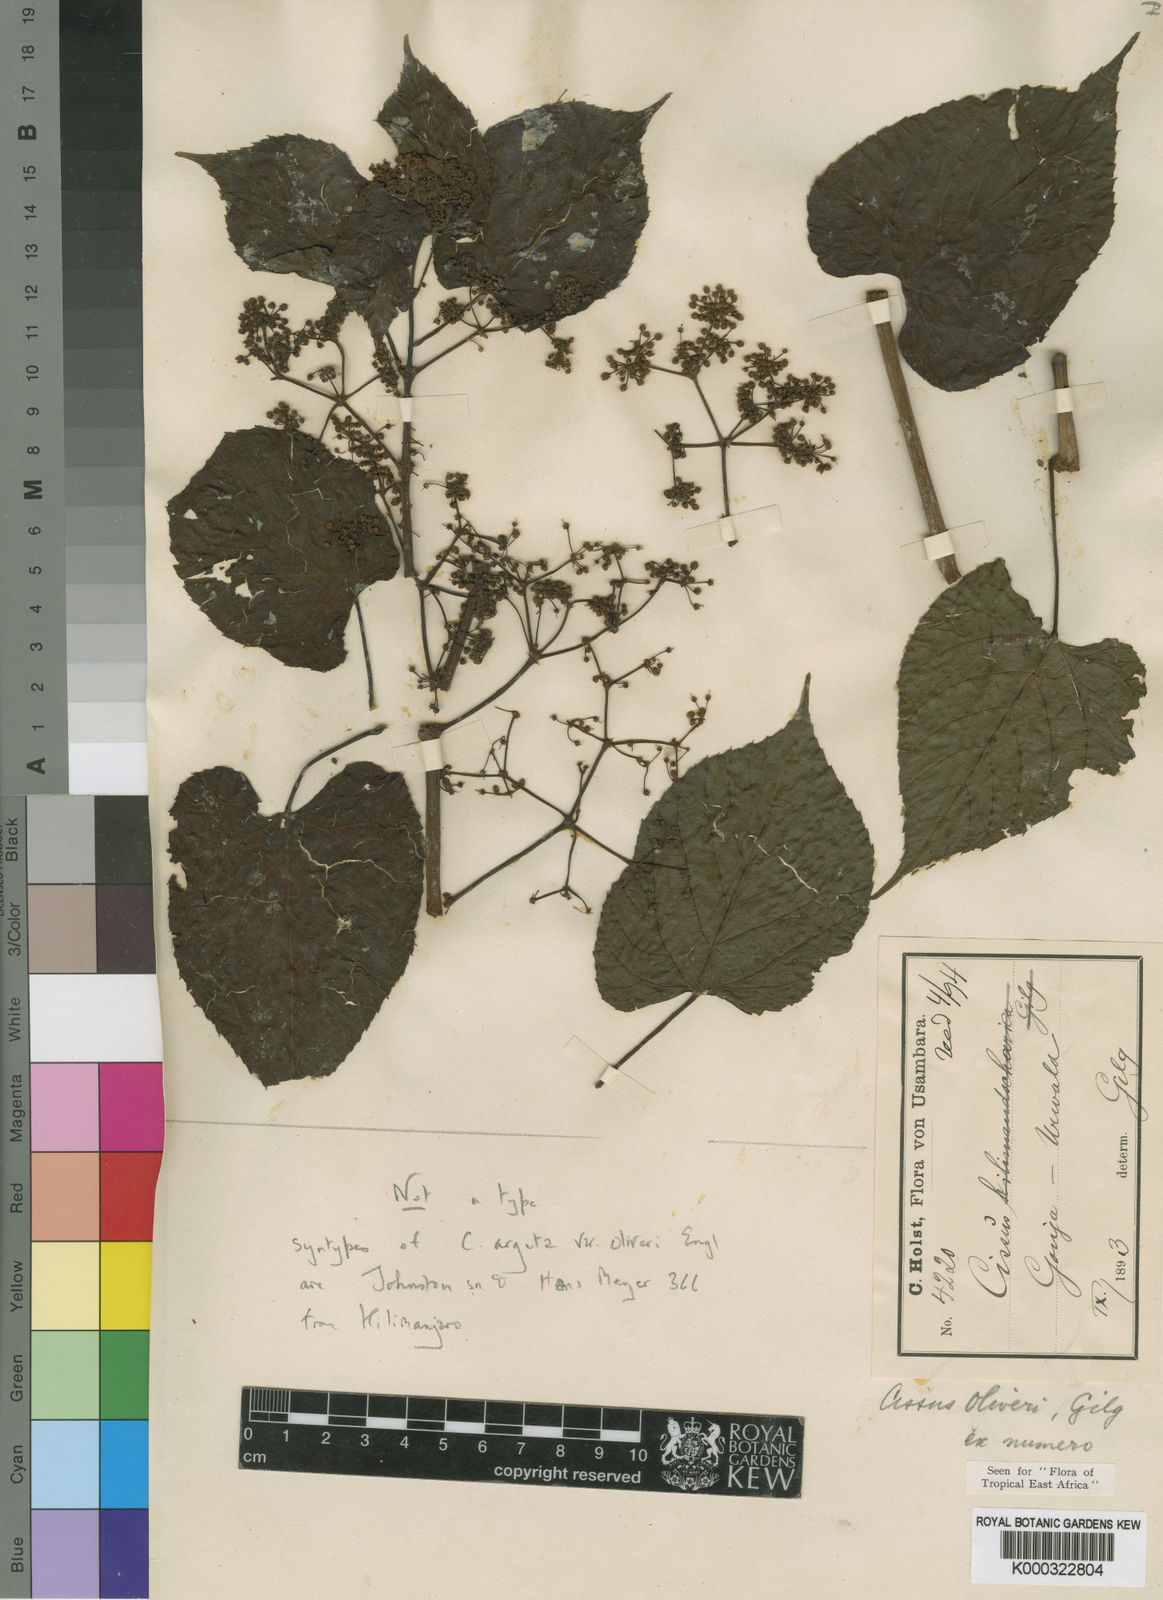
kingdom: Plantae
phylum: Tracheophyta
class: Magnoliopsida
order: Vitales
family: Vitaceae
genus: Cissus
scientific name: Cissus oliveri
